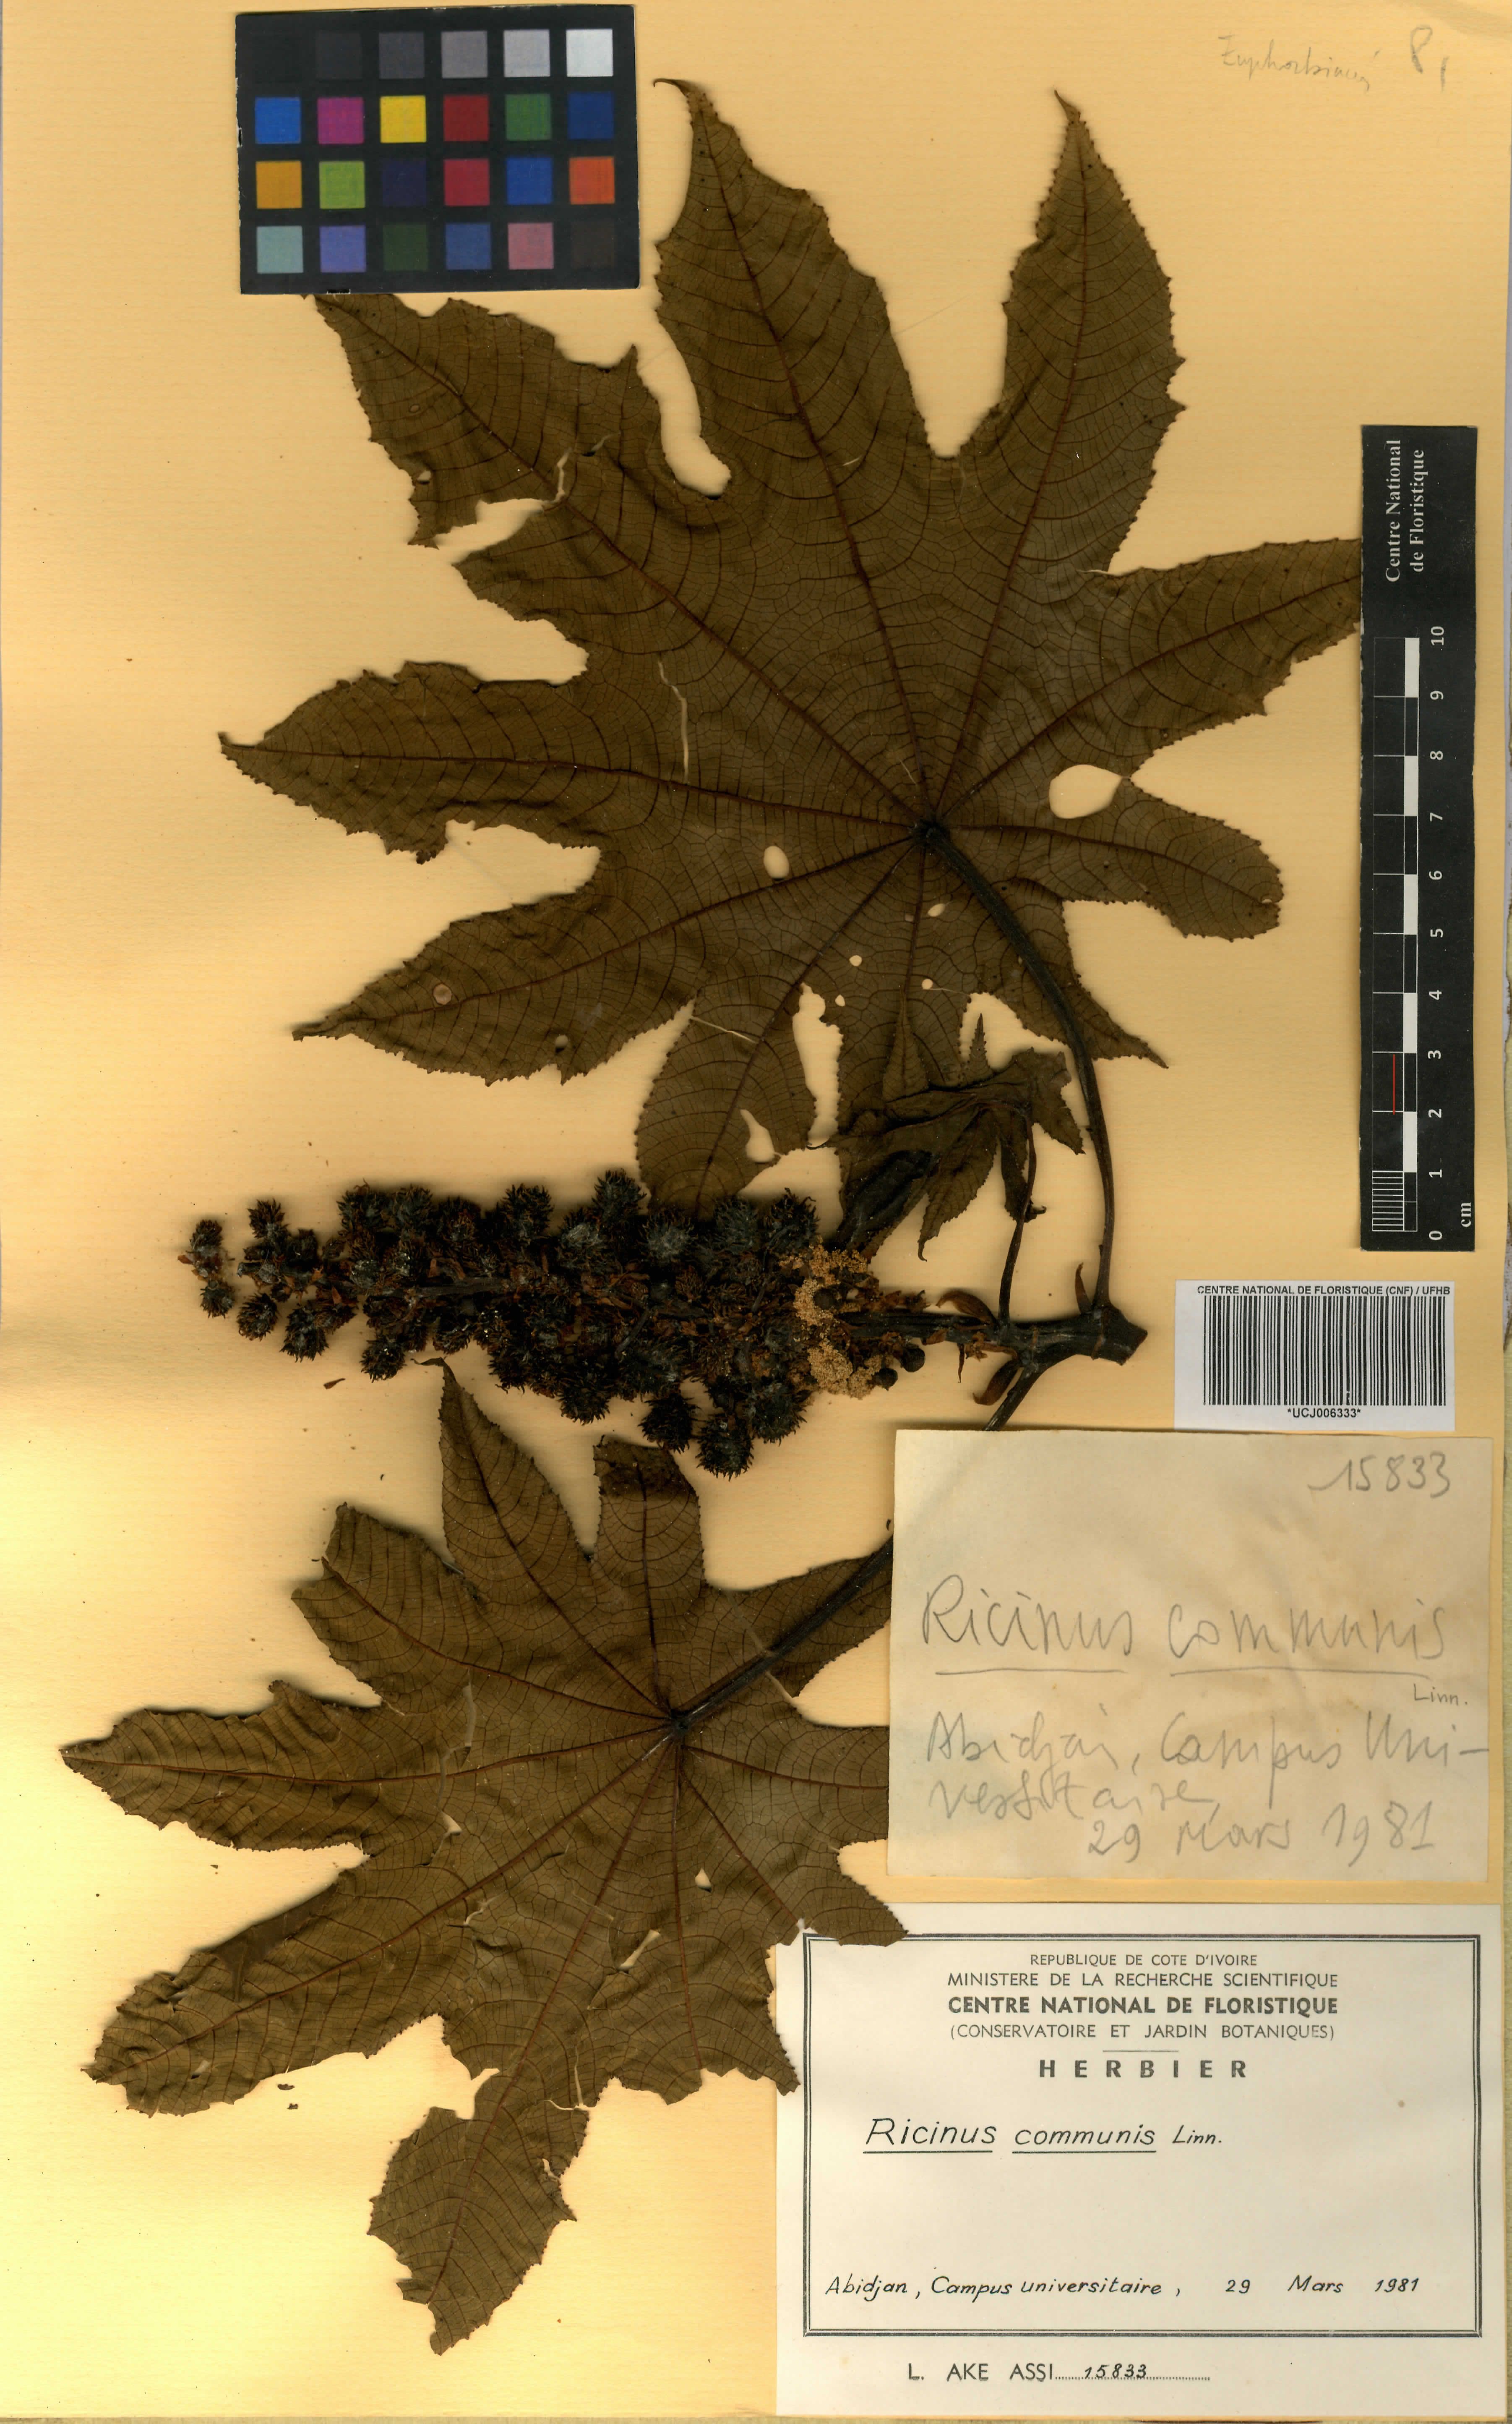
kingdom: Plantae
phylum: Tracheophyta
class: Magnoliopsida
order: Malpighiales
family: Euphorbiaceae
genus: Ricinus
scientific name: Ricinus communis
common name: Castor-oil-plant
